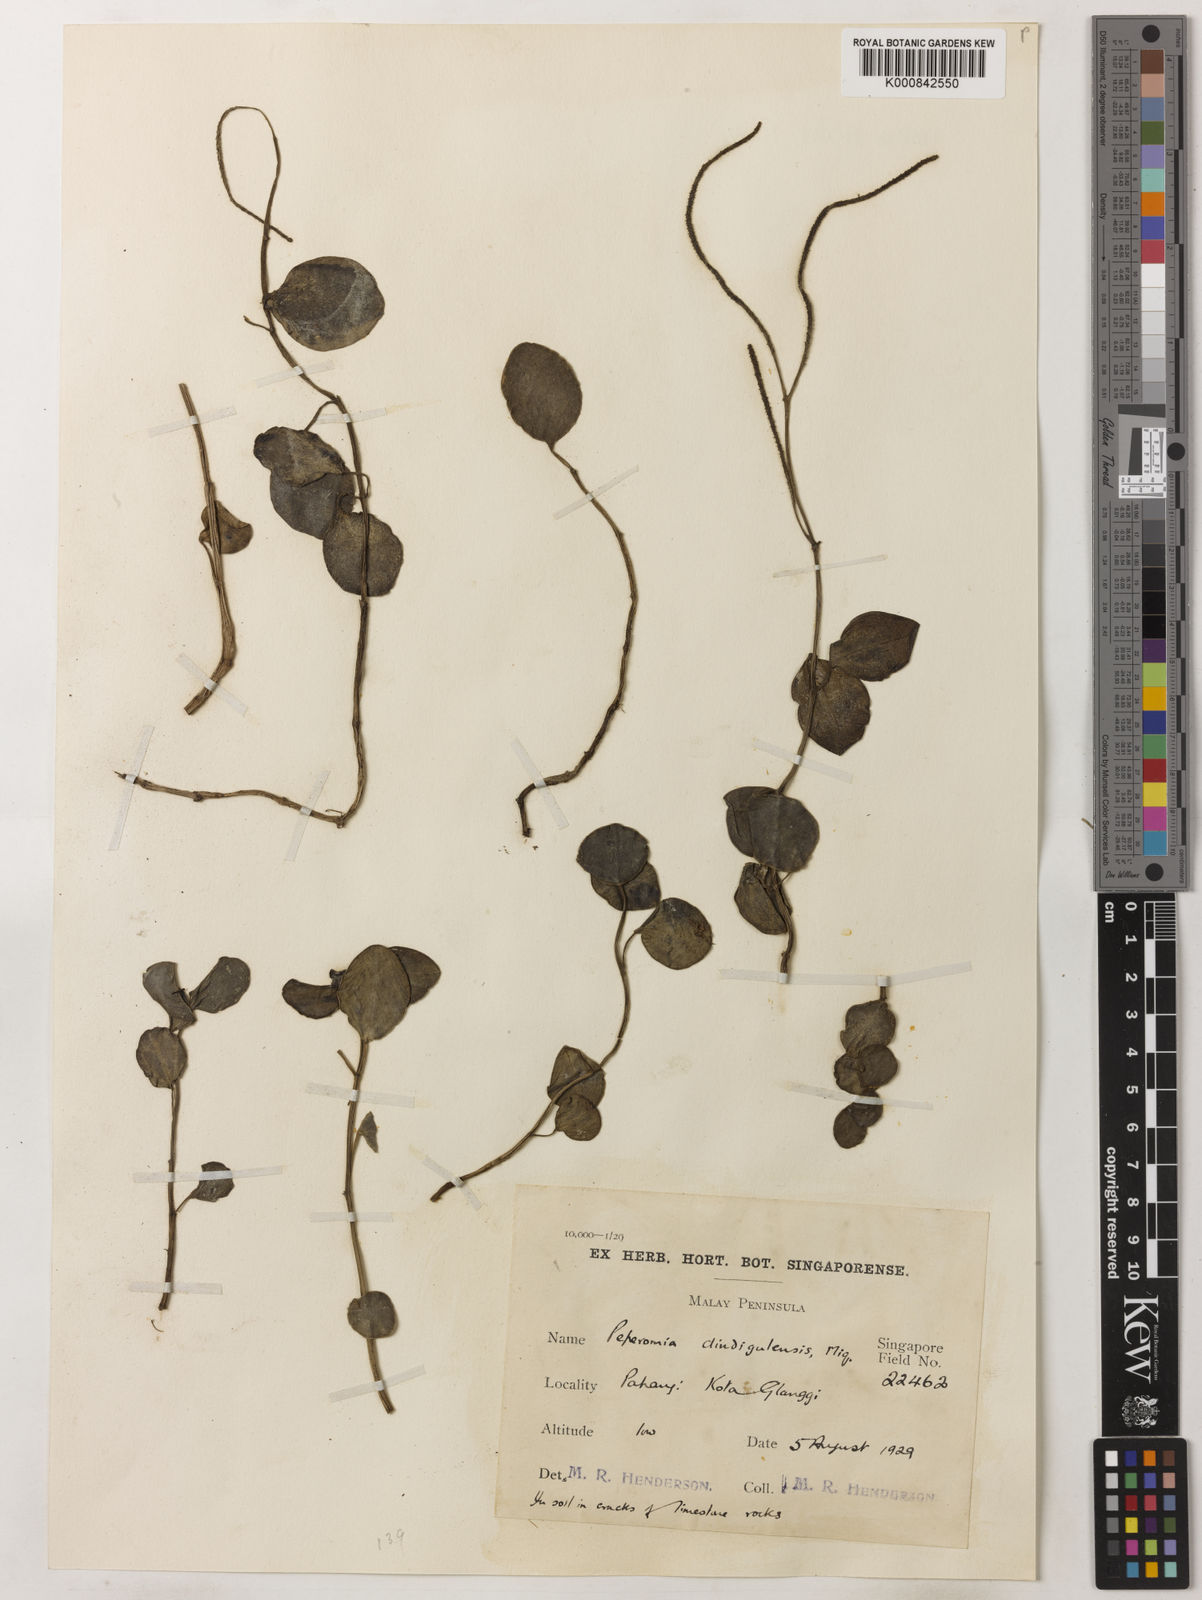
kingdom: Plantae
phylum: Tracheophyta
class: Magnoliopsida
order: Piperales
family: Piperaceae
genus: Peperomia
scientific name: Peperomia decumbens
